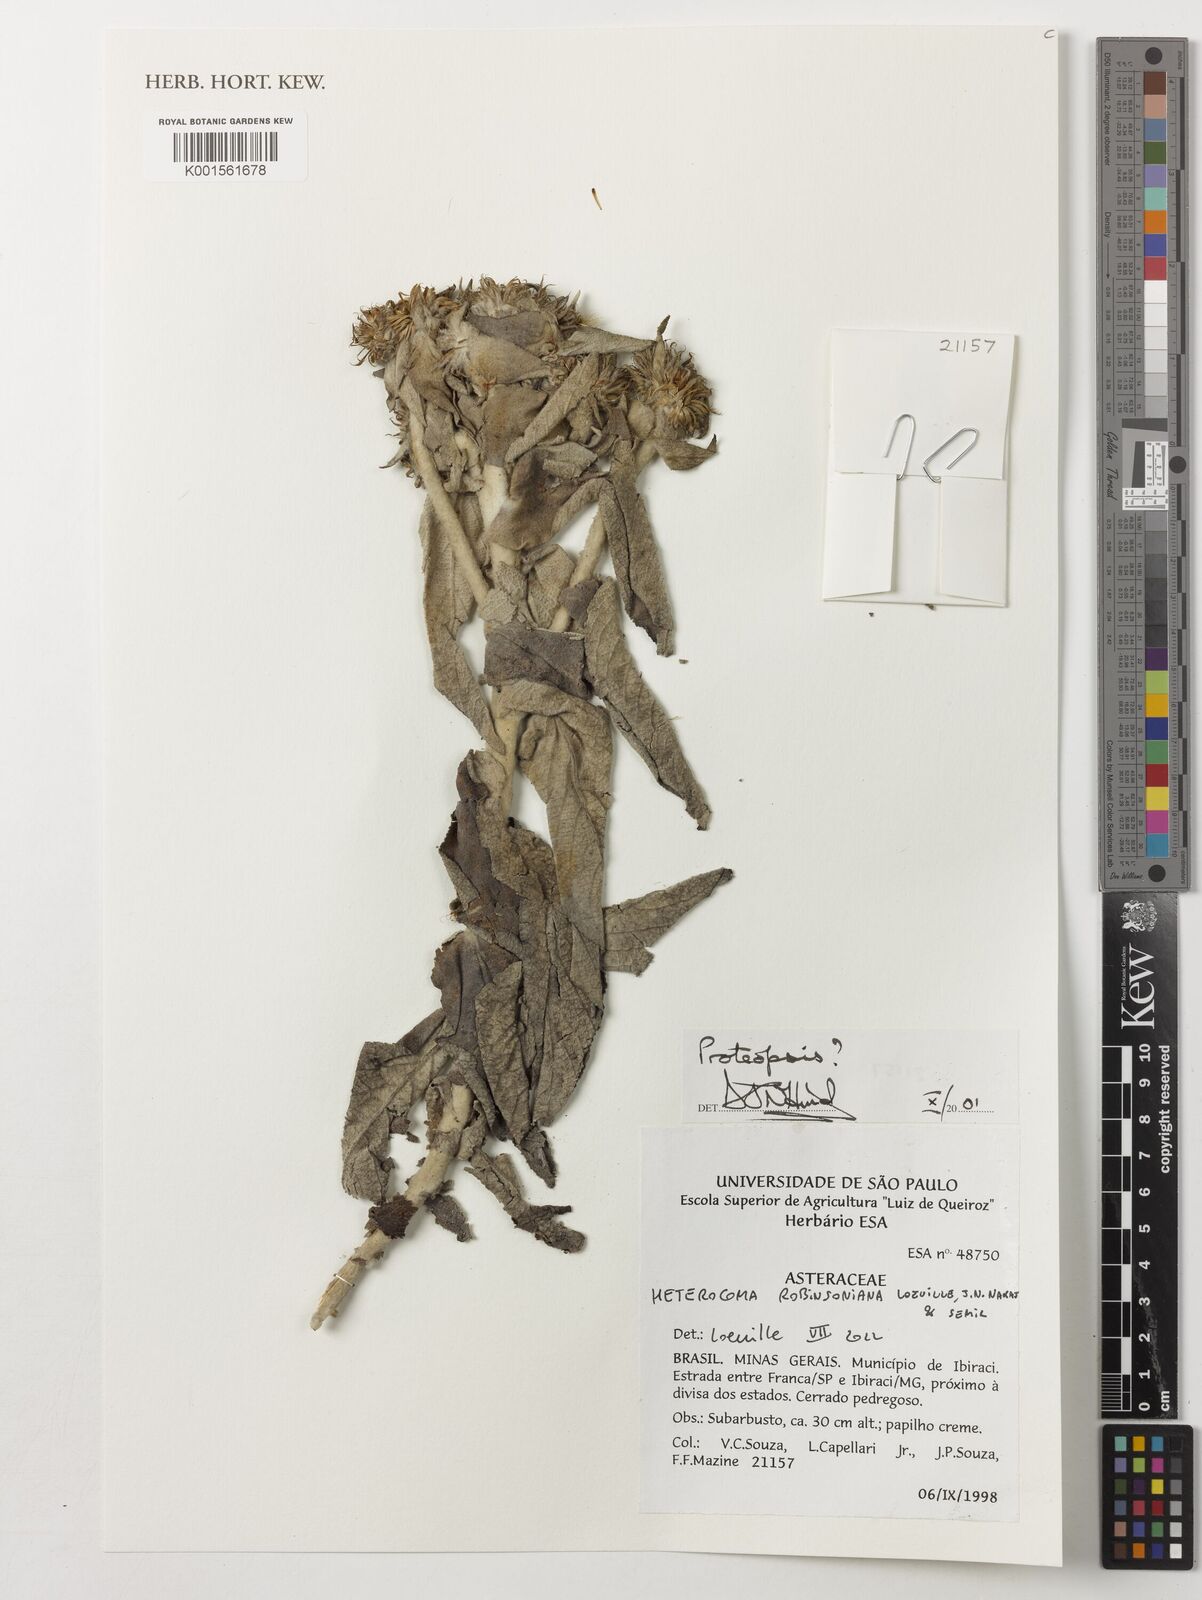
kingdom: Plantae
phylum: Tracheophyta
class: Magnoliopsida
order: Asterales
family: Asteraceae
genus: Proteopsis
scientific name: Proteopsis
